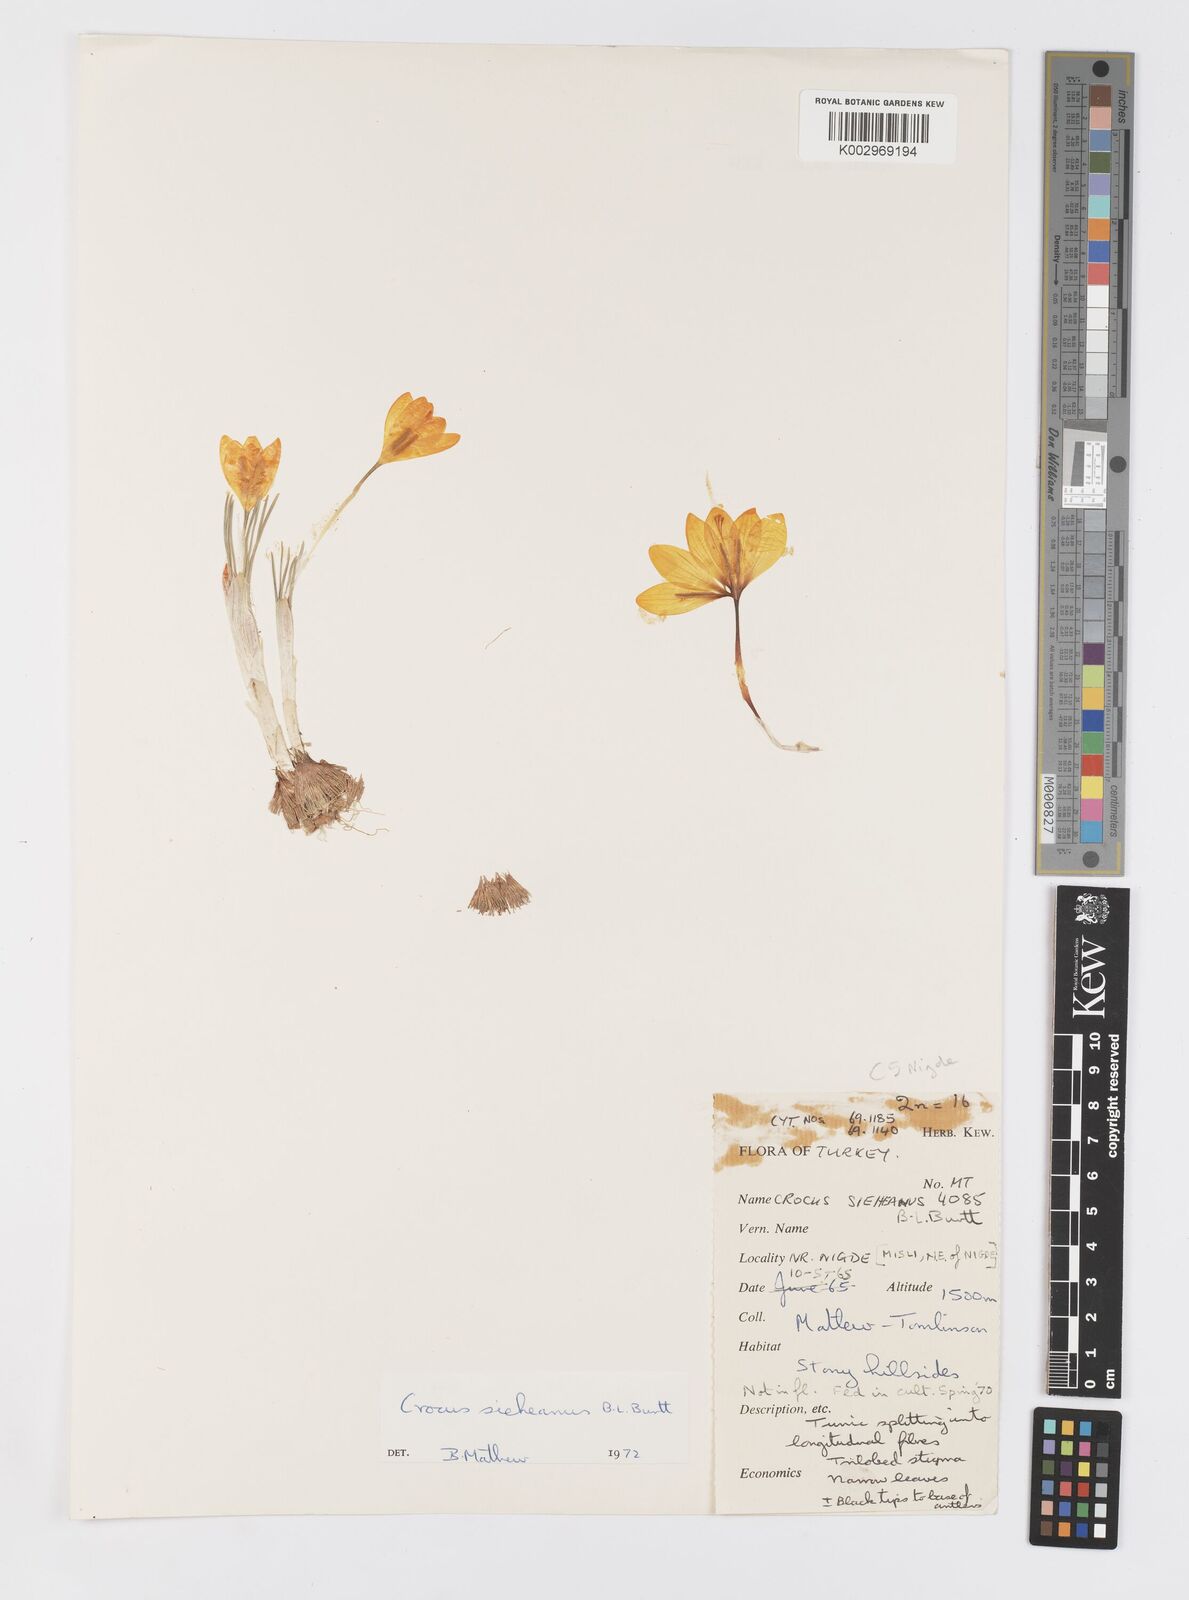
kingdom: Plantae
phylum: Tracheophyta
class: Liliopsida
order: Asparagales
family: Iridaceae
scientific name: Iridaceae
